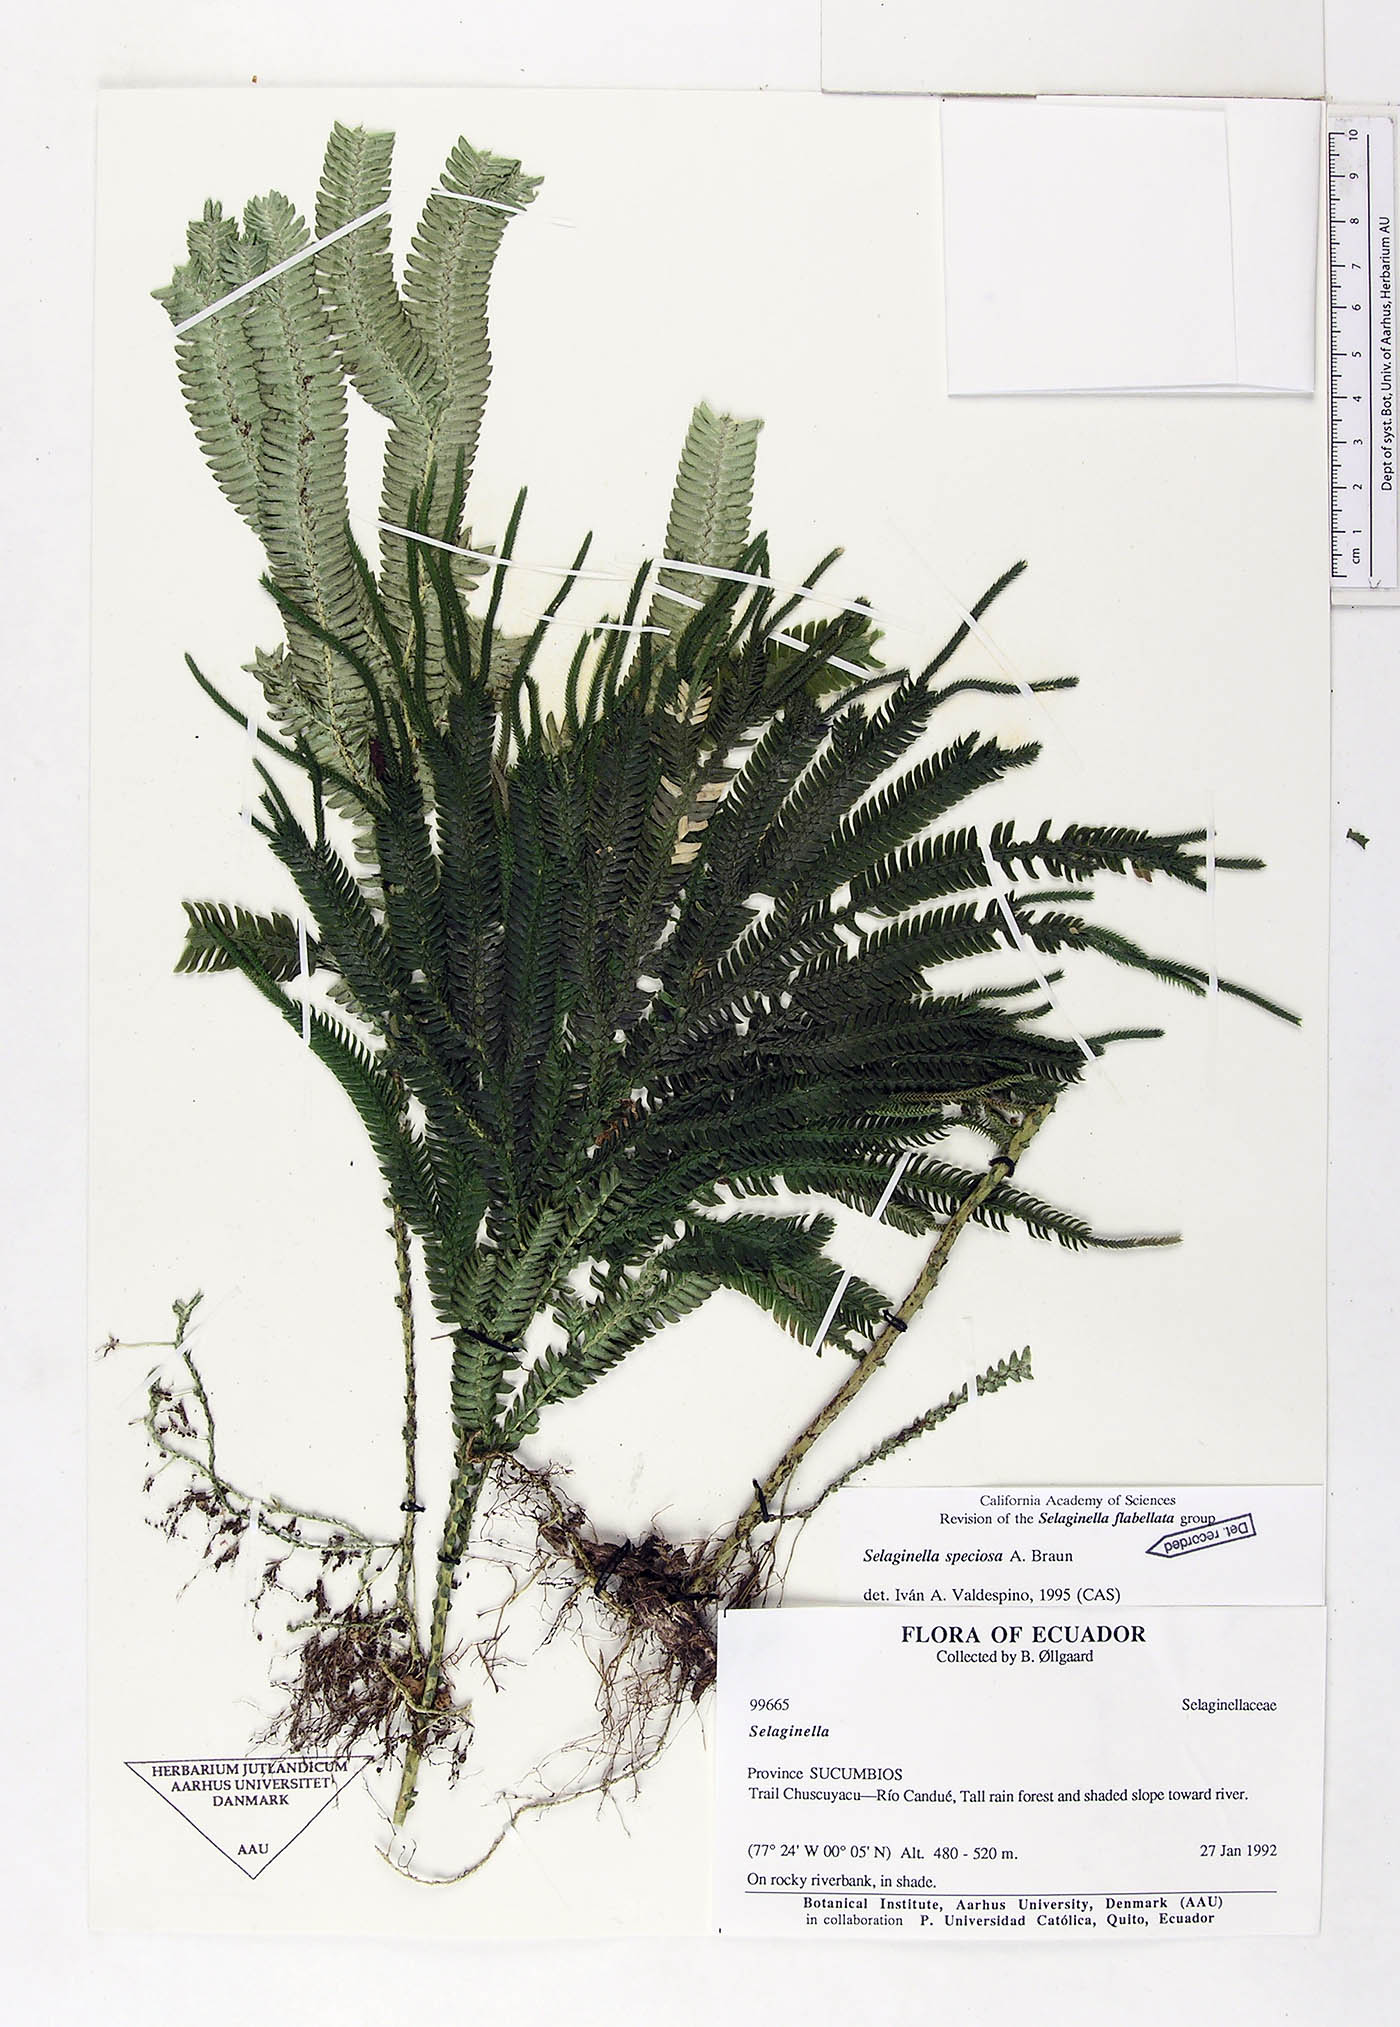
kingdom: Plantae
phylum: Tracheophyta
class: Lycopodiopsida
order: Selaginellales
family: Selaginellaceae
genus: Selaginella
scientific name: Selaginella speciosa
